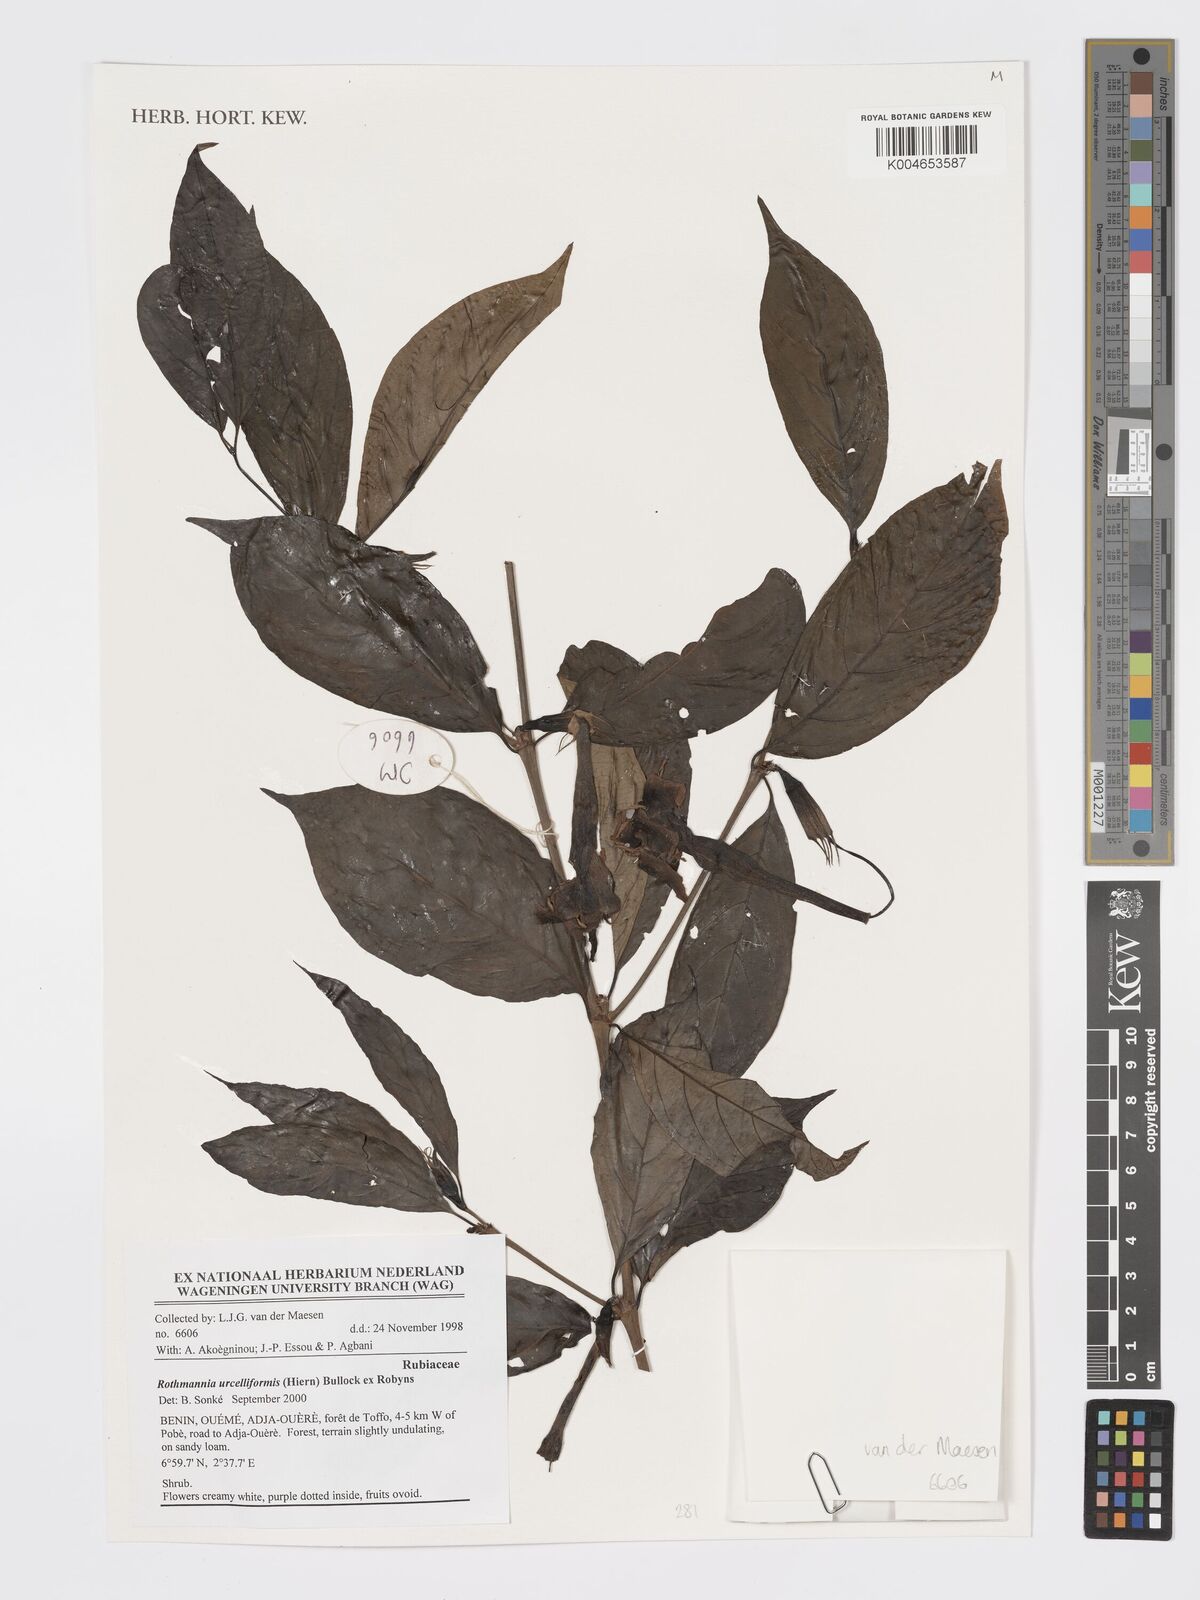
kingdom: Plantae
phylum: Tracheophyta
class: Magnoliopsida
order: Gentianales
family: Rubiaceae
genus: Rothmannia
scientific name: Rothmannia urcelliformis
